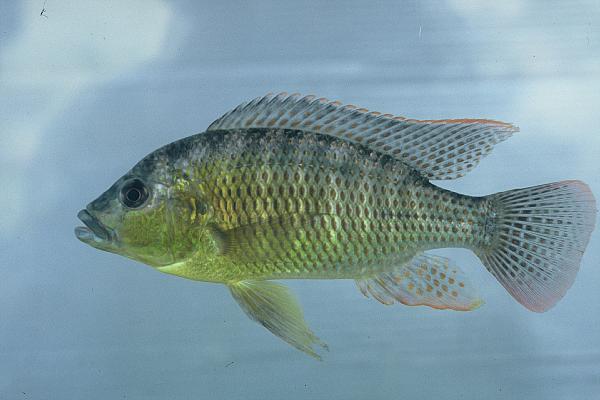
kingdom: Animalia
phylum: Chordata
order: Perciformes
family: Cichlidae
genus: Sargochromis
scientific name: Sargochromis coulteri
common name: Kunene bream
